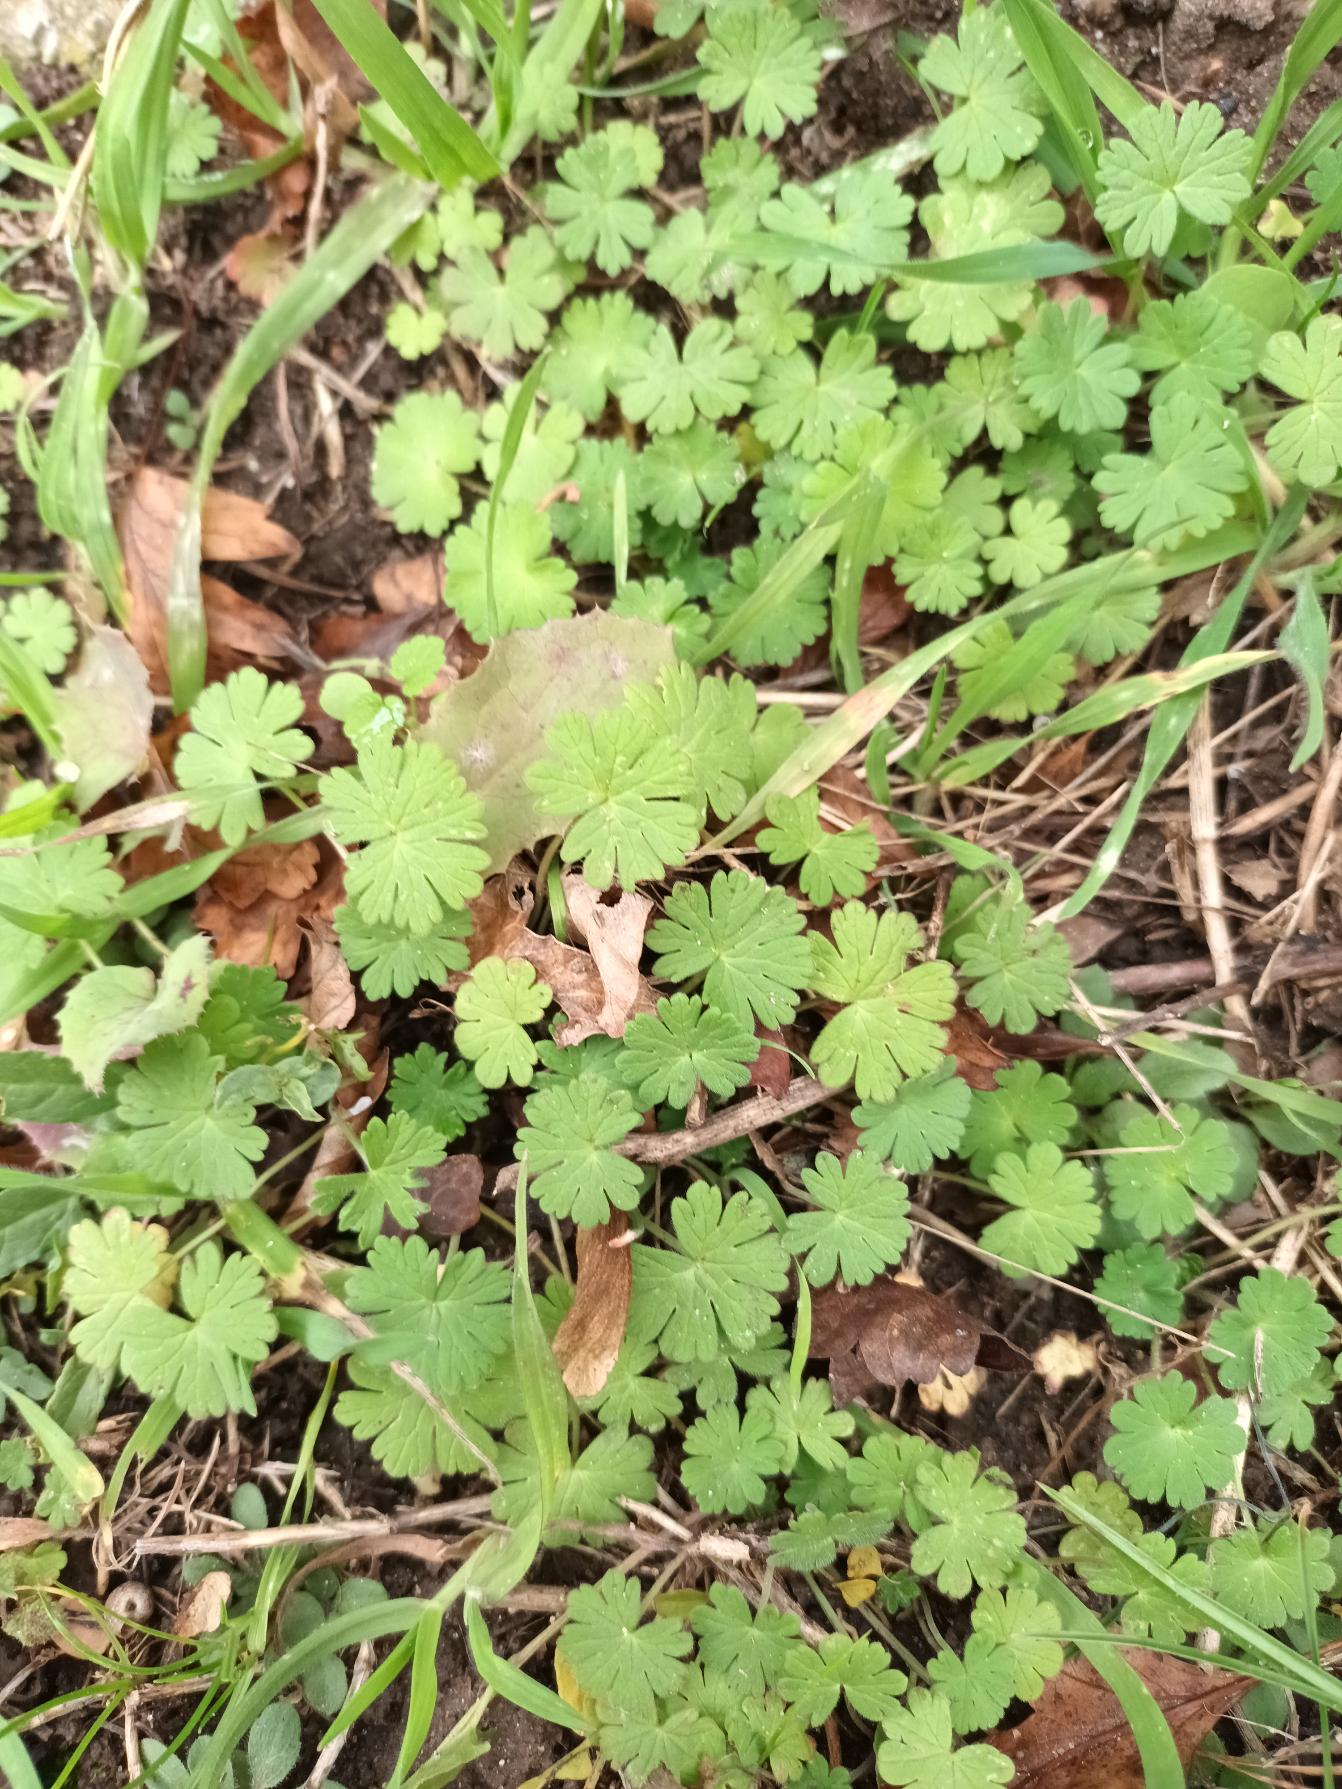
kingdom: Plantae
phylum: Tracheophyta
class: Magnoliopsida
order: Geraniales
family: Geraniaceae
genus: Geranium
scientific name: Geranium pusillum
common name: Liden storkenæb
